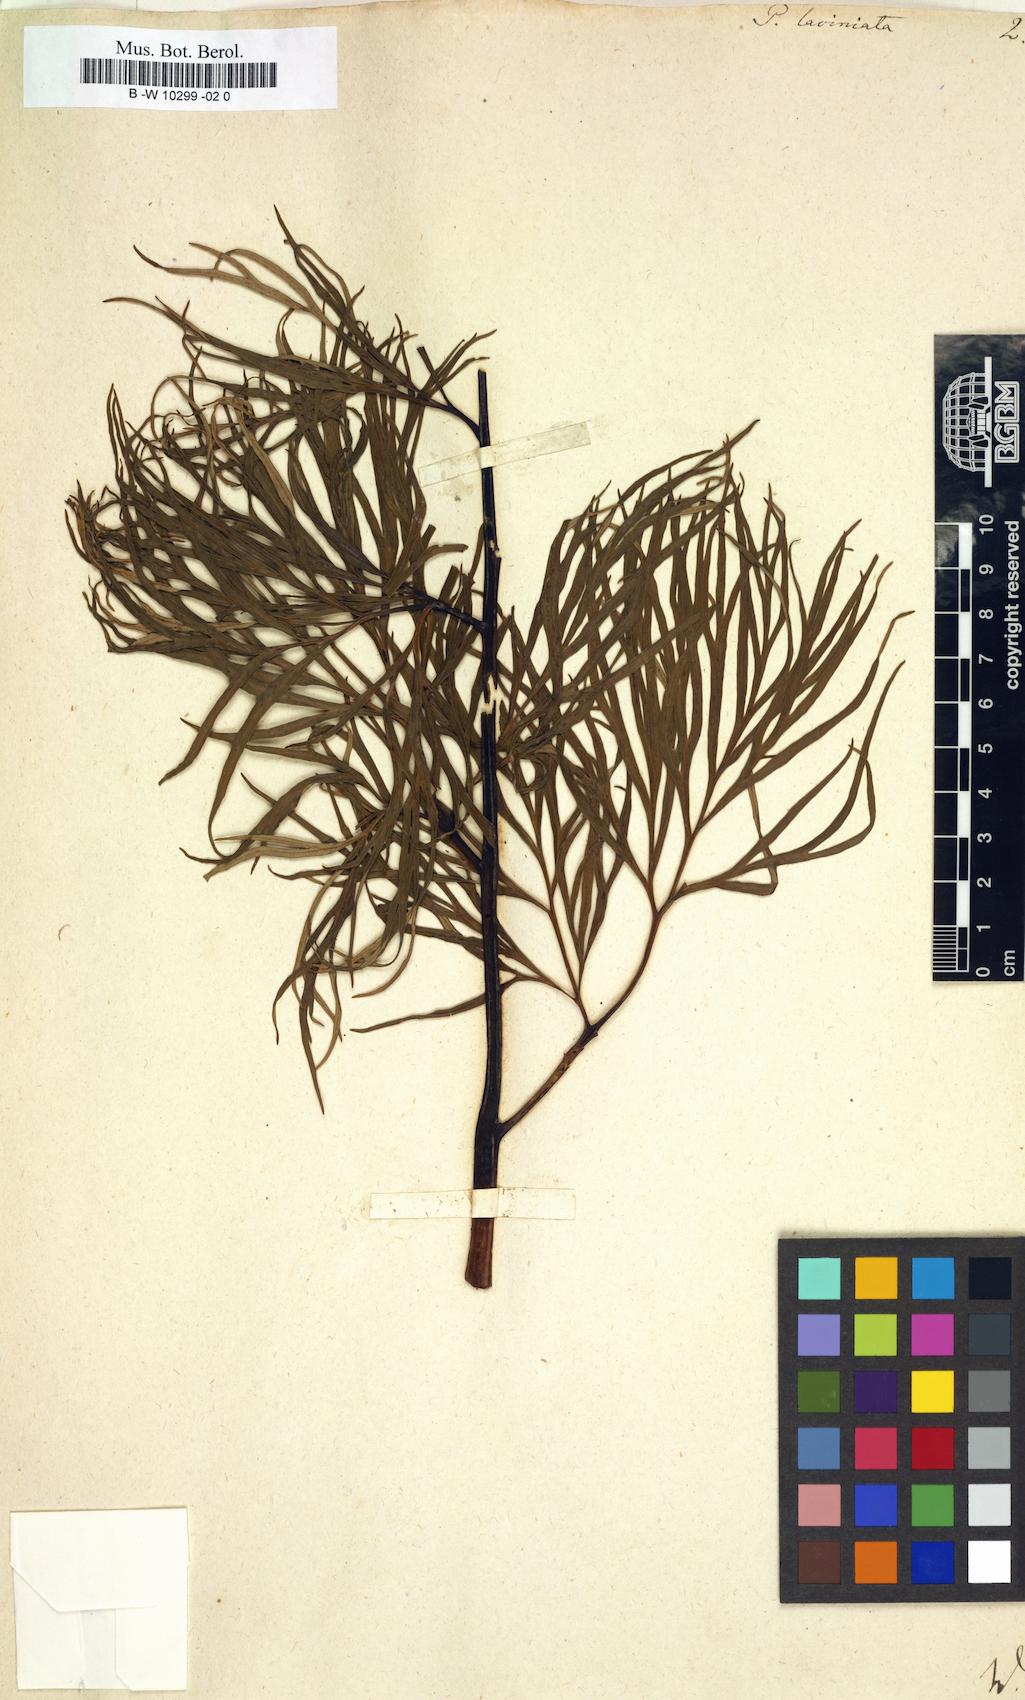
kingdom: Plantae
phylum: Tracheophyta
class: Magnoliopsida
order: Saxifragales
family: Paeoniaceae
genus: Paeonia
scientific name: Paeonia
